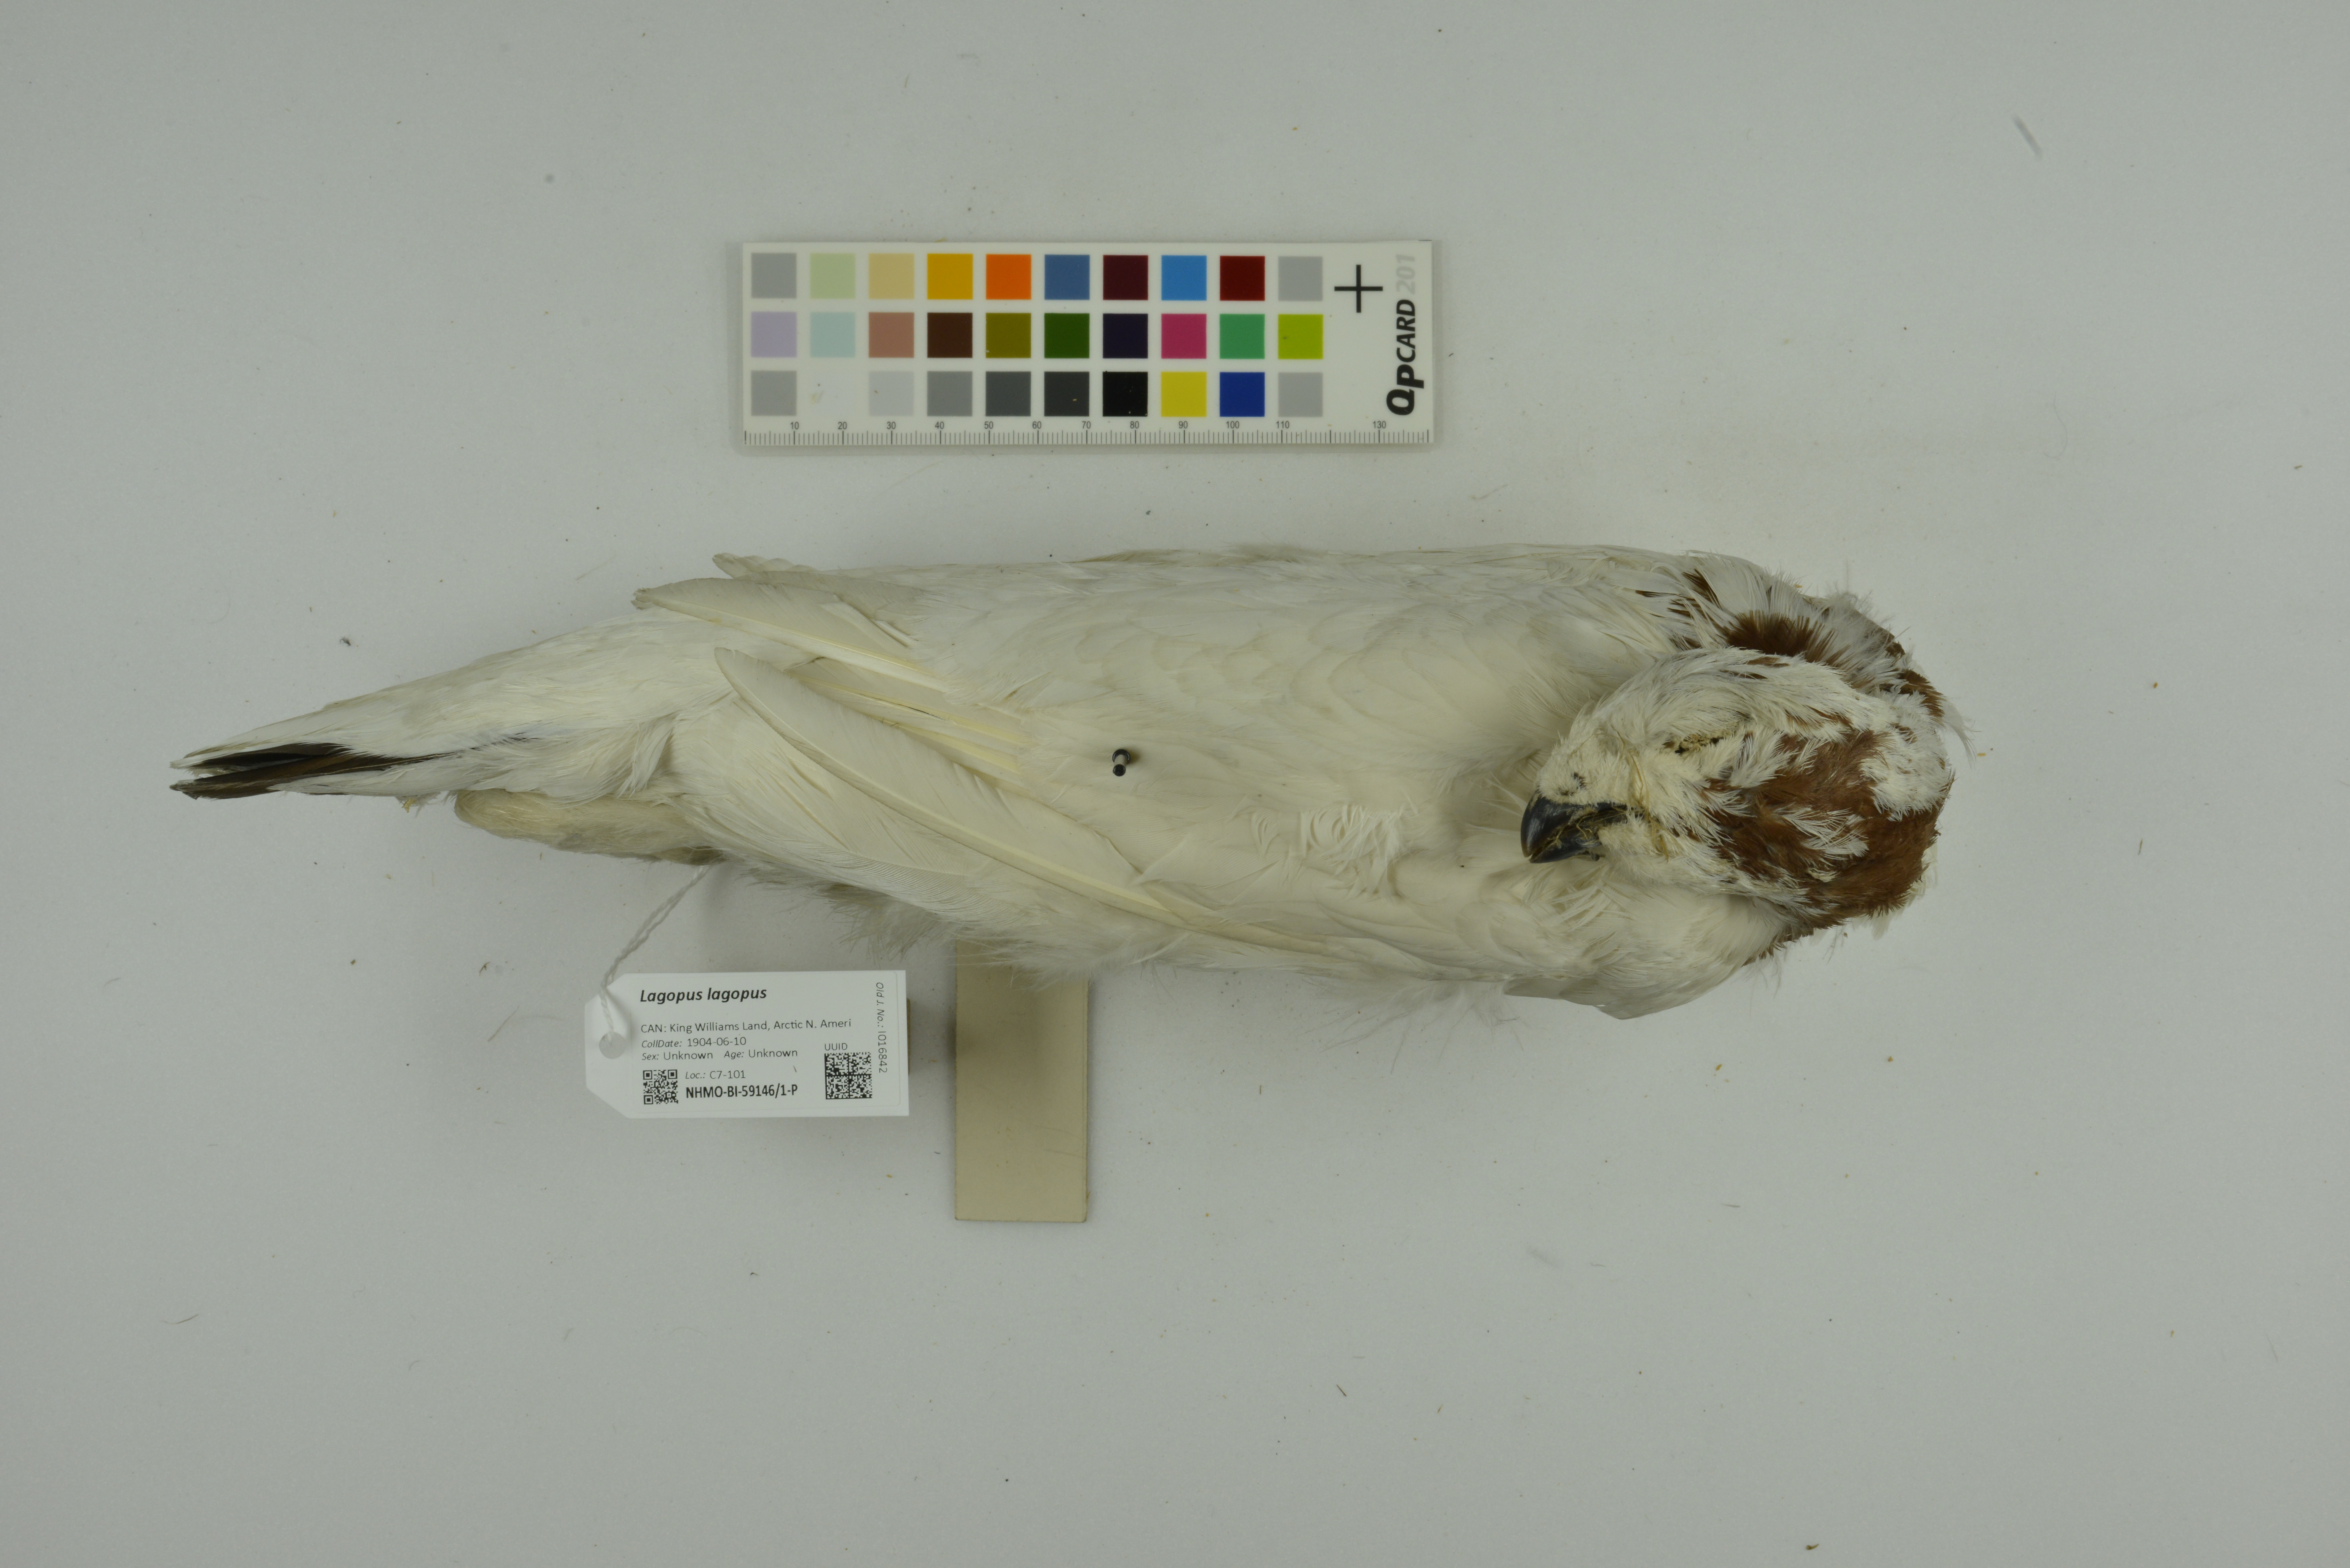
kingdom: Animalia
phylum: Chordata
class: Aves
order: Galliformes
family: Phasianidae
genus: Lagopus
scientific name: Lagopus lagopus
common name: Willow ptarmigan
